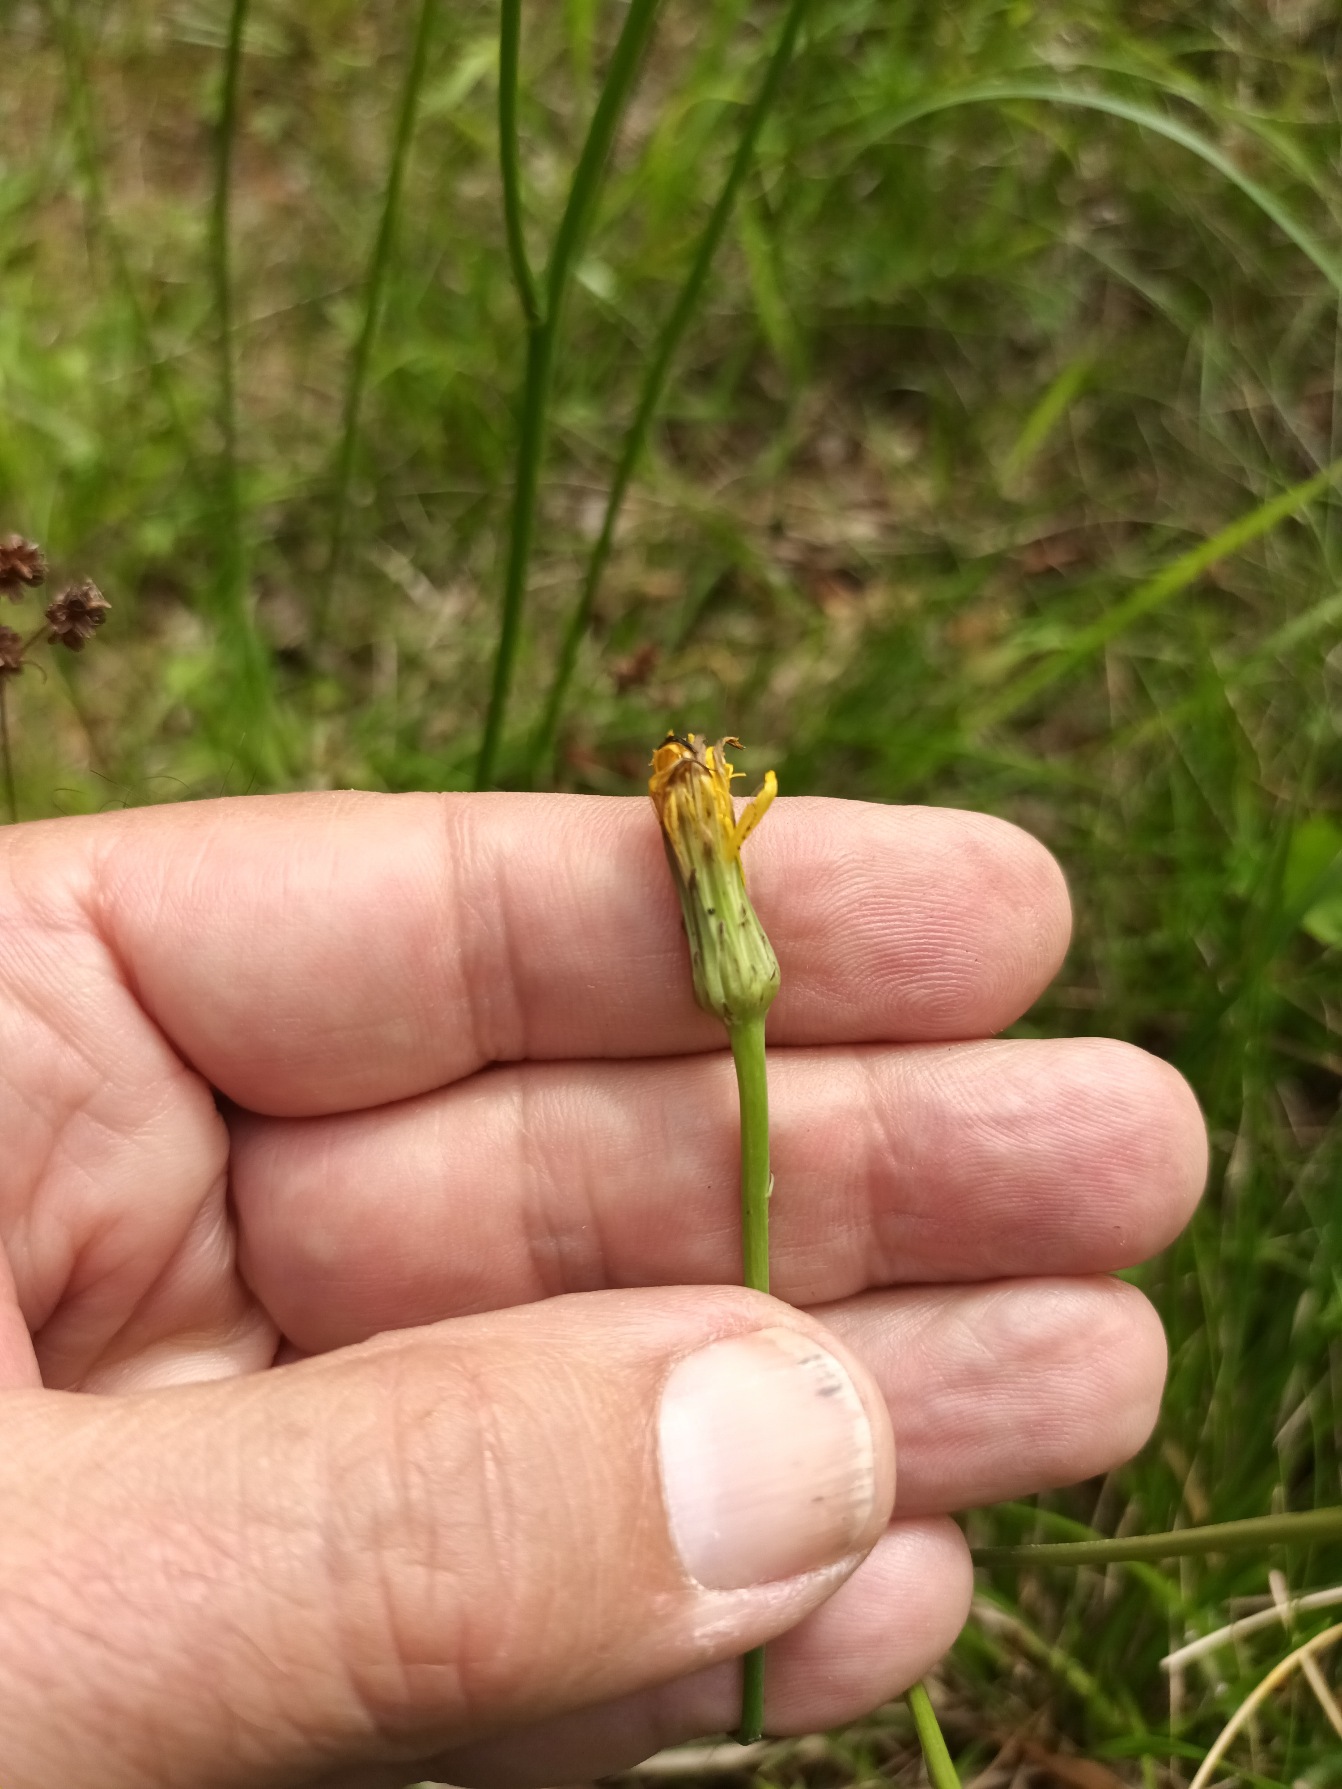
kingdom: Plantae
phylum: Tracheophyta
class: Magnoliopsida
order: Asterales
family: Asteraceae
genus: Hypochaeris
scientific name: Hypochaeris radicata
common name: Almindelig kongepen
